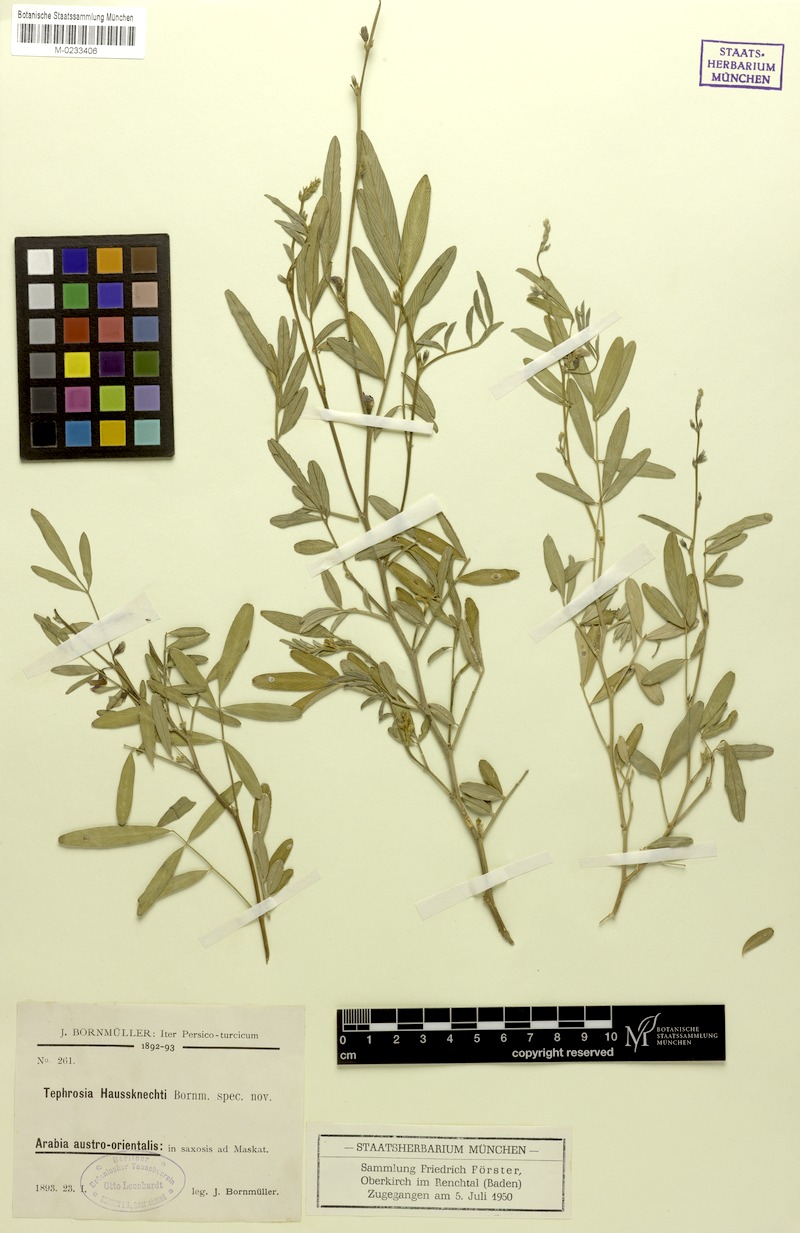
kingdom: Plantae
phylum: Tracheophyta
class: Magnoliopsida
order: Fabales
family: Fabaceae
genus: Tephrosia
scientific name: Tephrosia haussknechtii
